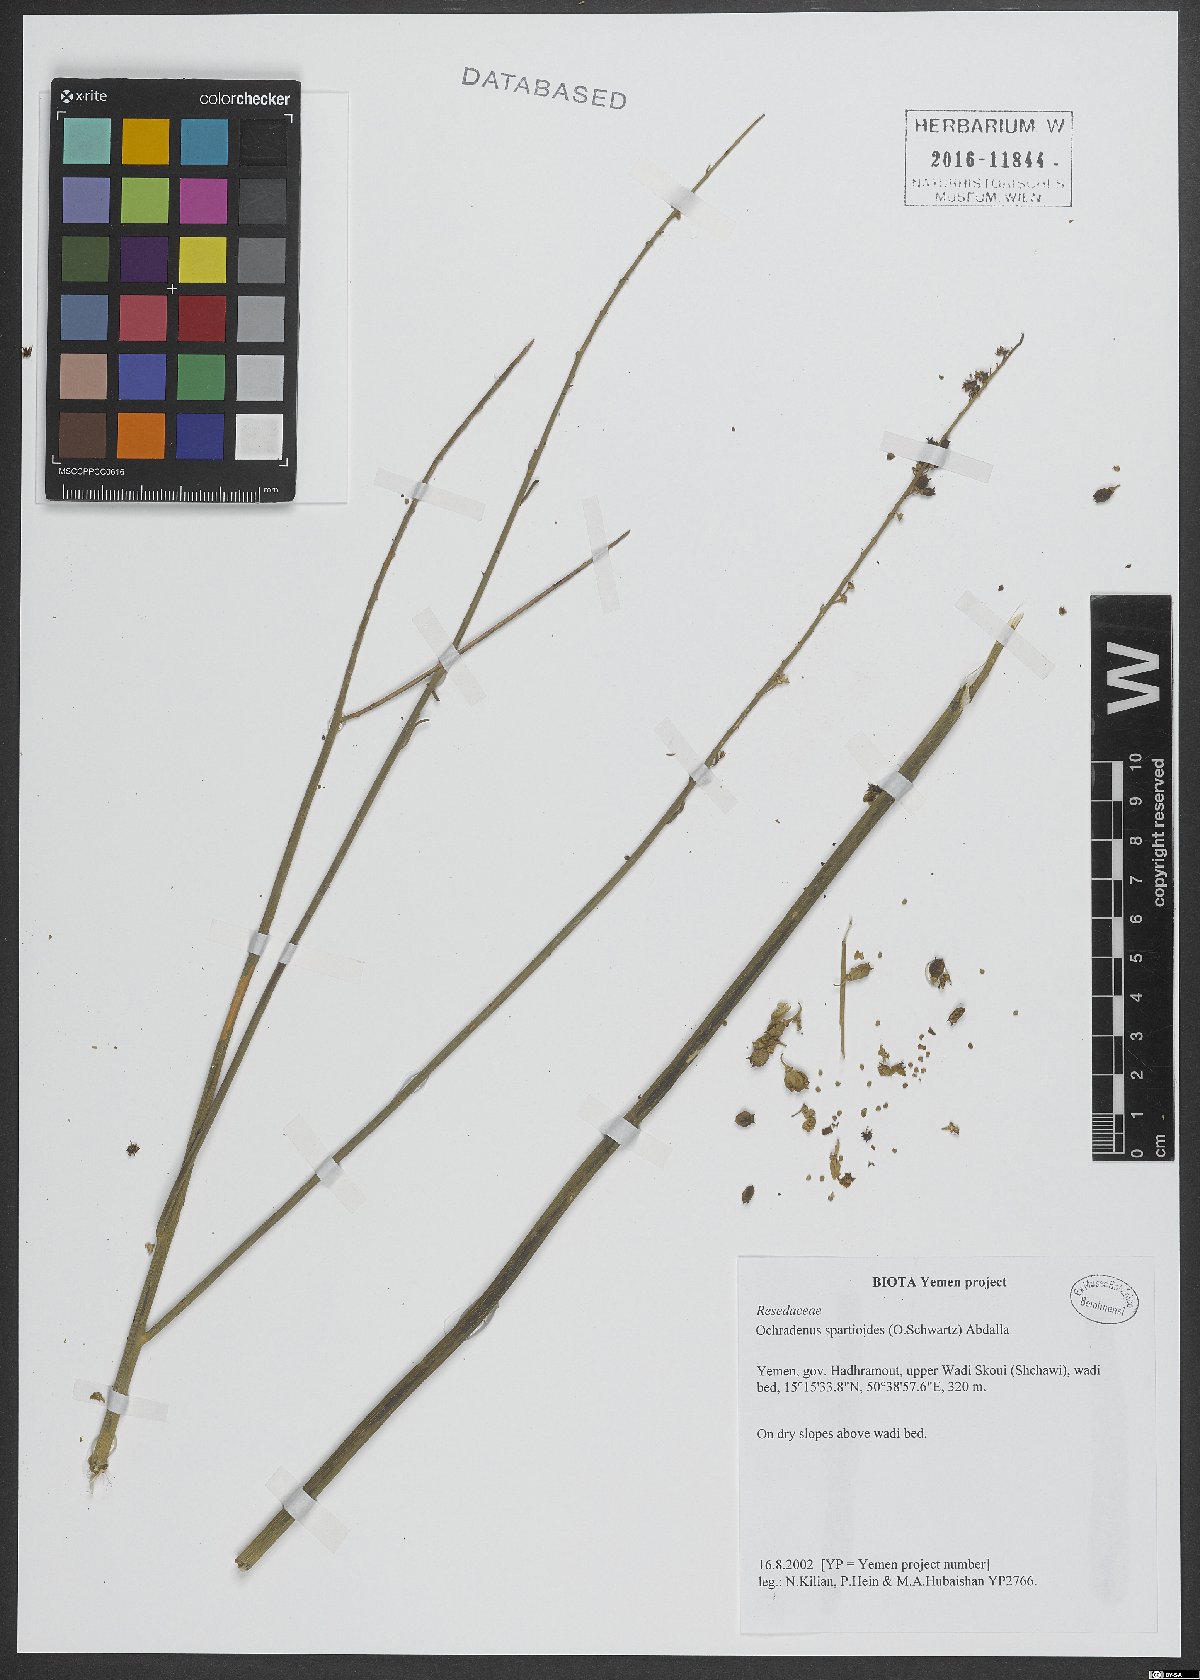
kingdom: Plantae
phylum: Tracheophyta
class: Magnoliopsida
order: Brassicales
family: Resedaceae
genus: Ochradenus
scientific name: Ochradenus spartioides
